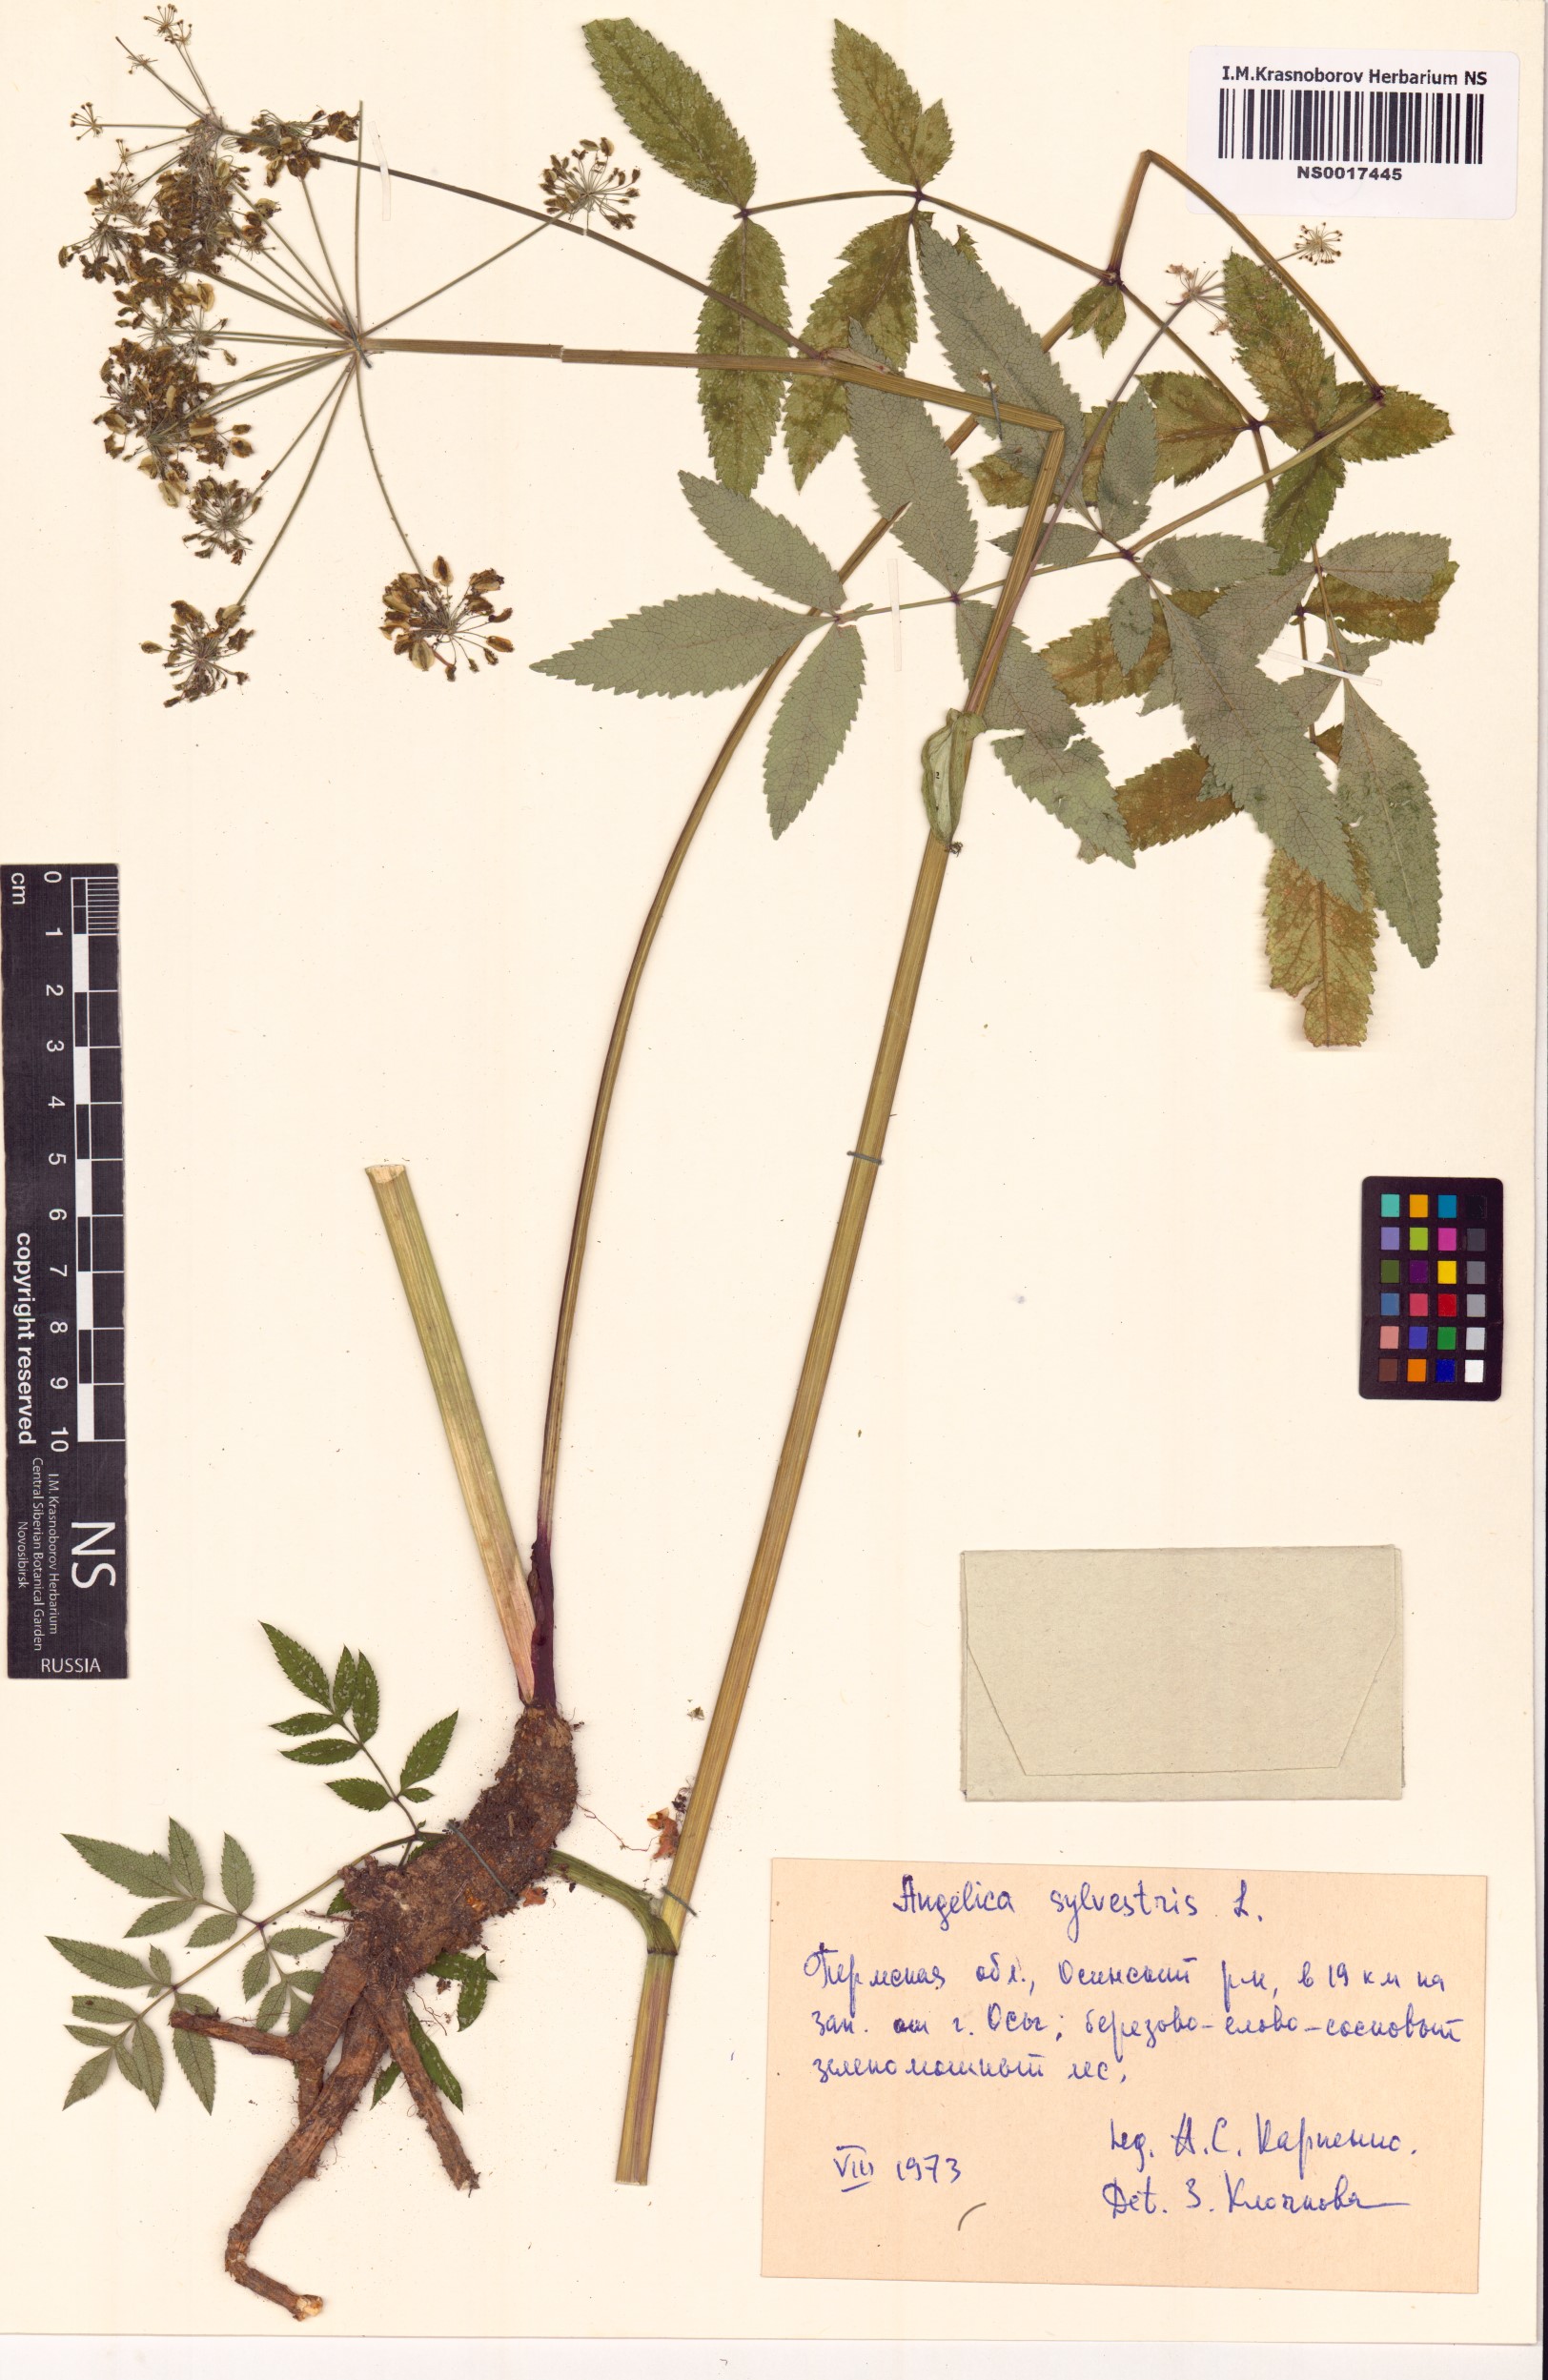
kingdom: Plantae
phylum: Tracheophyta
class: Magnoliopsida
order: Apiales
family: Apiaceae
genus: Angelica
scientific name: Angelica sylvestris
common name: Wild angelica
